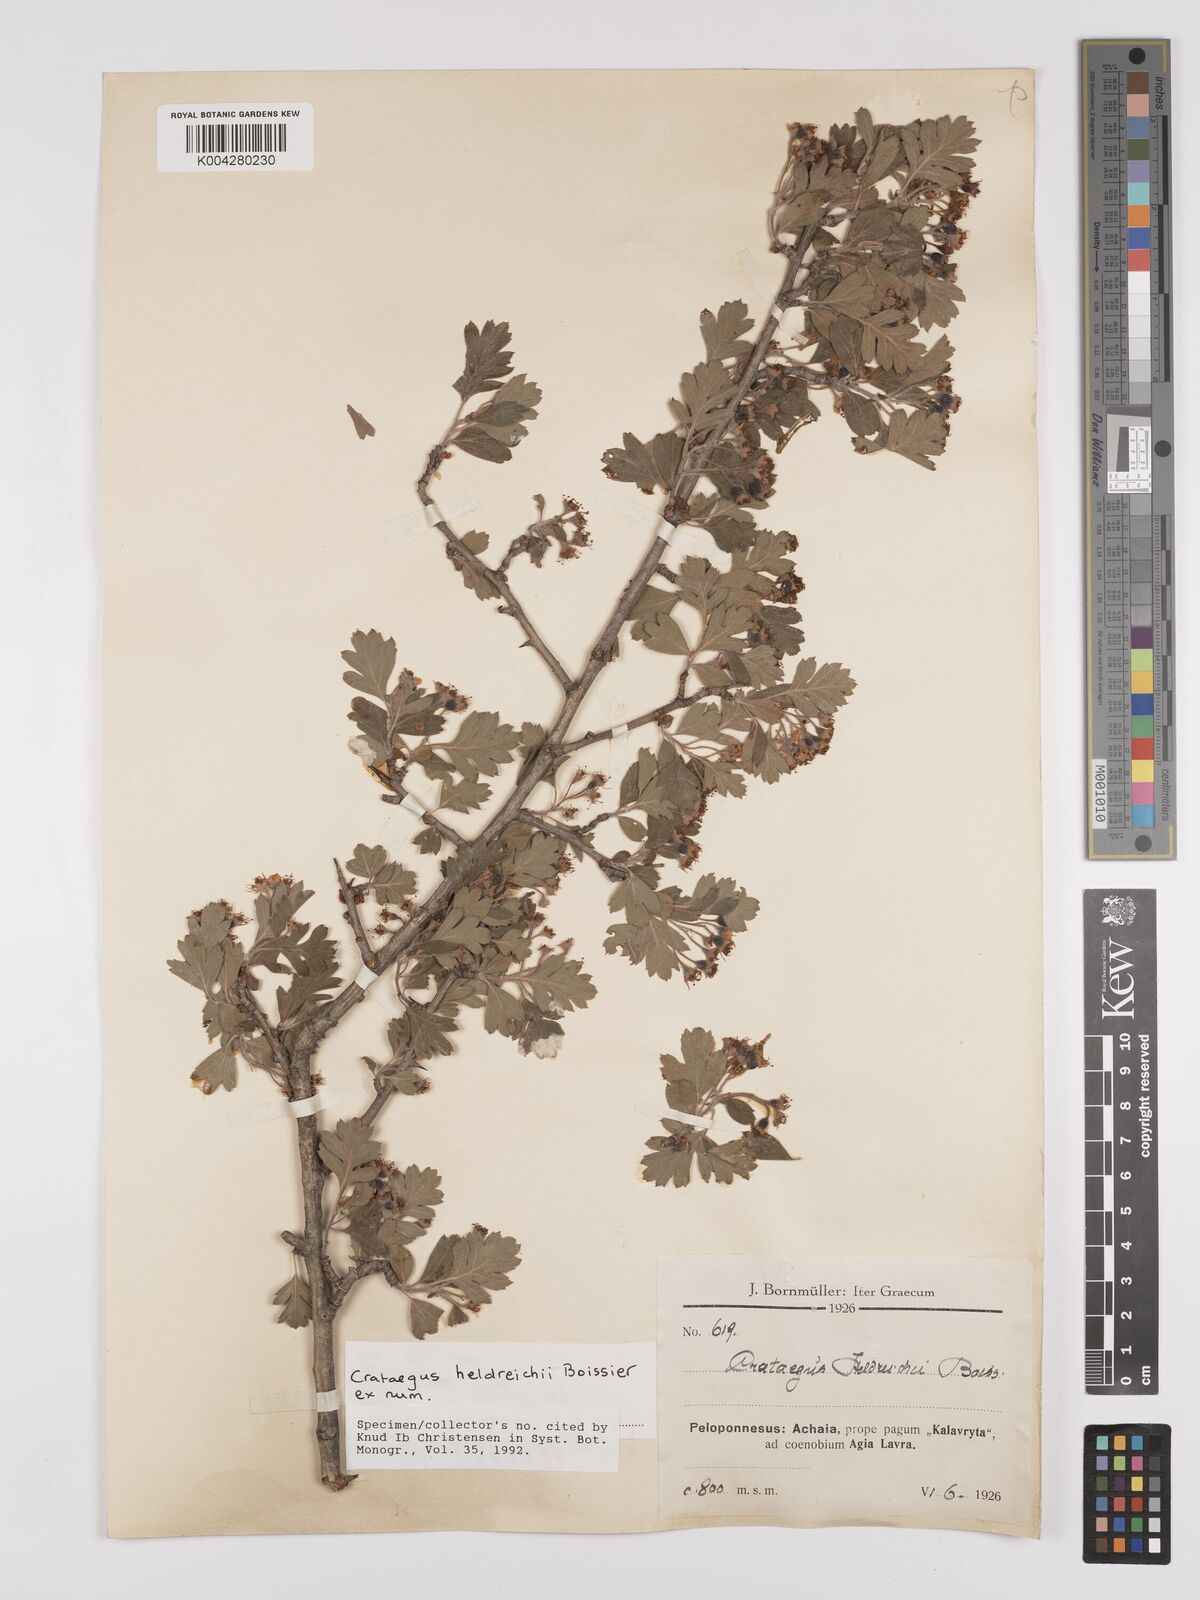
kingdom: Plantae
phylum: Tracheophyta
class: Magnoliopsida
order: Rosales
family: Rosaceae
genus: Crataegus
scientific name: Crataegus heldreichii
